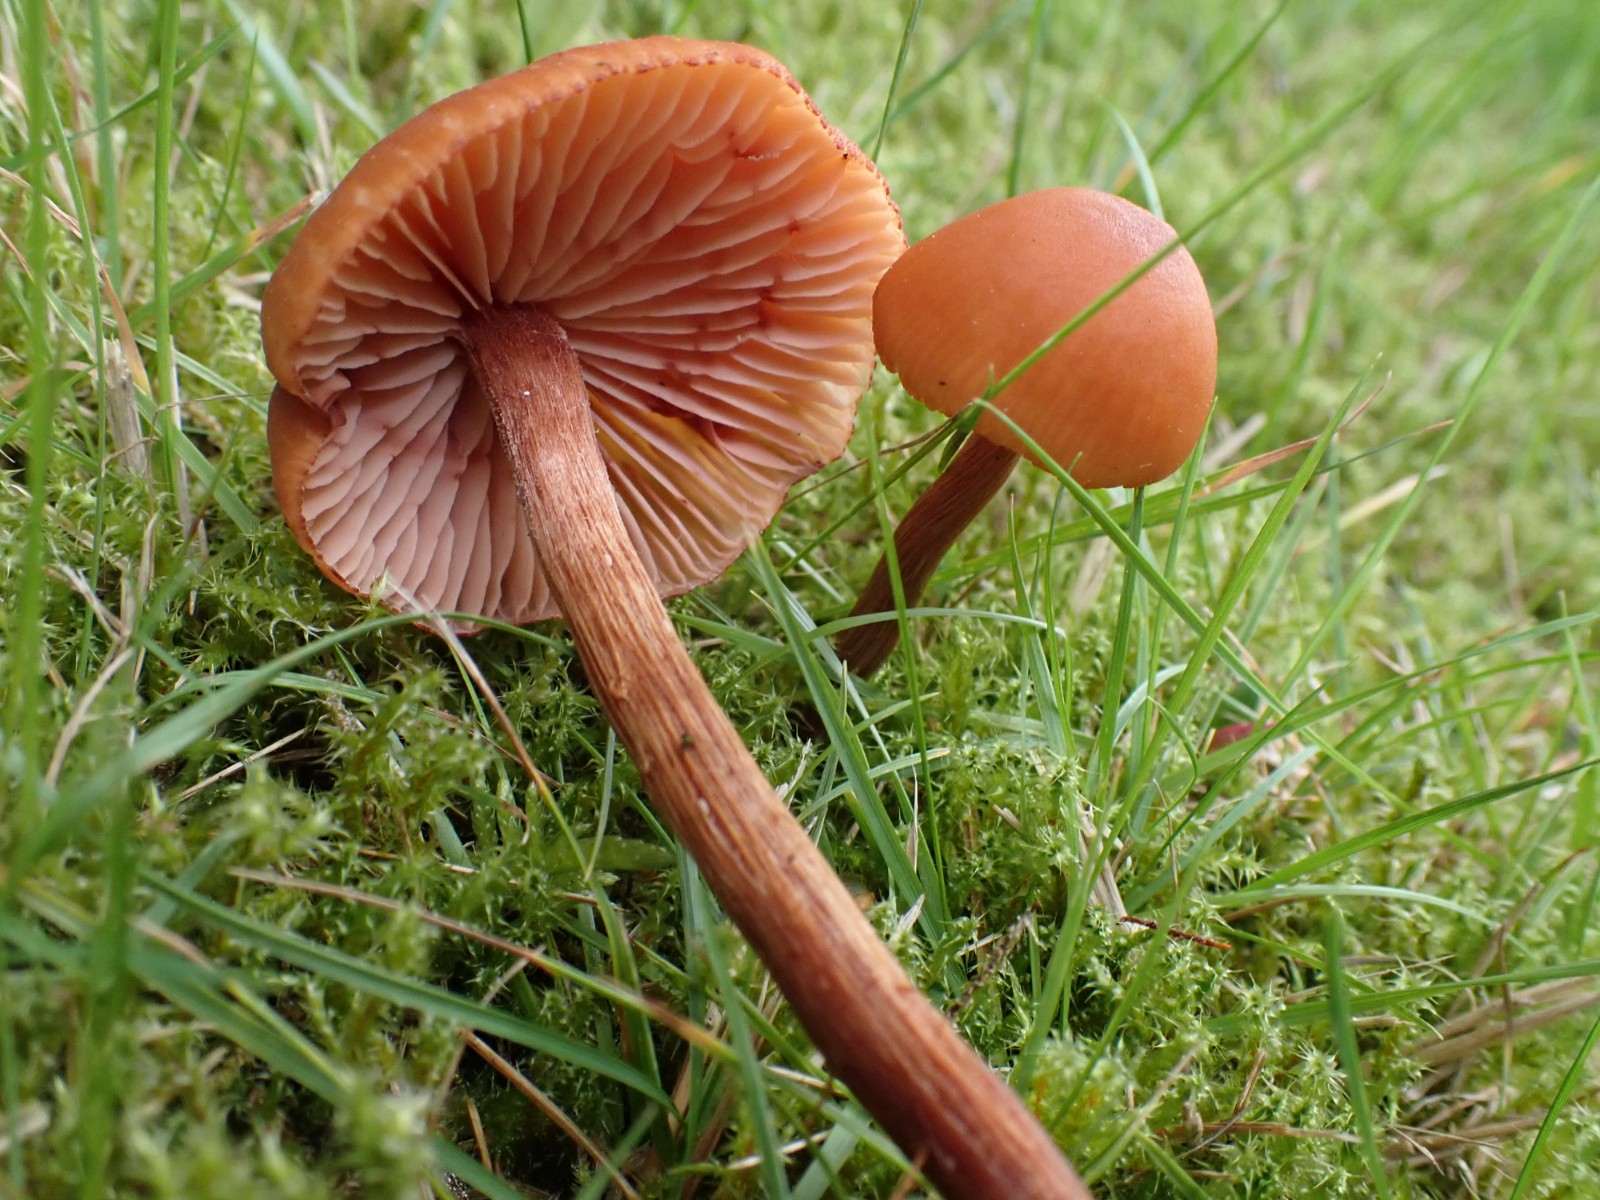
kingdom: Fungi
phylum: Basidiomycota
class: Agaricomycetes
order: Agaricales
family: Hydnangiaceae
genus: Laccaria
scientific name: Laccaria proxima
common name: stor ametysthat
